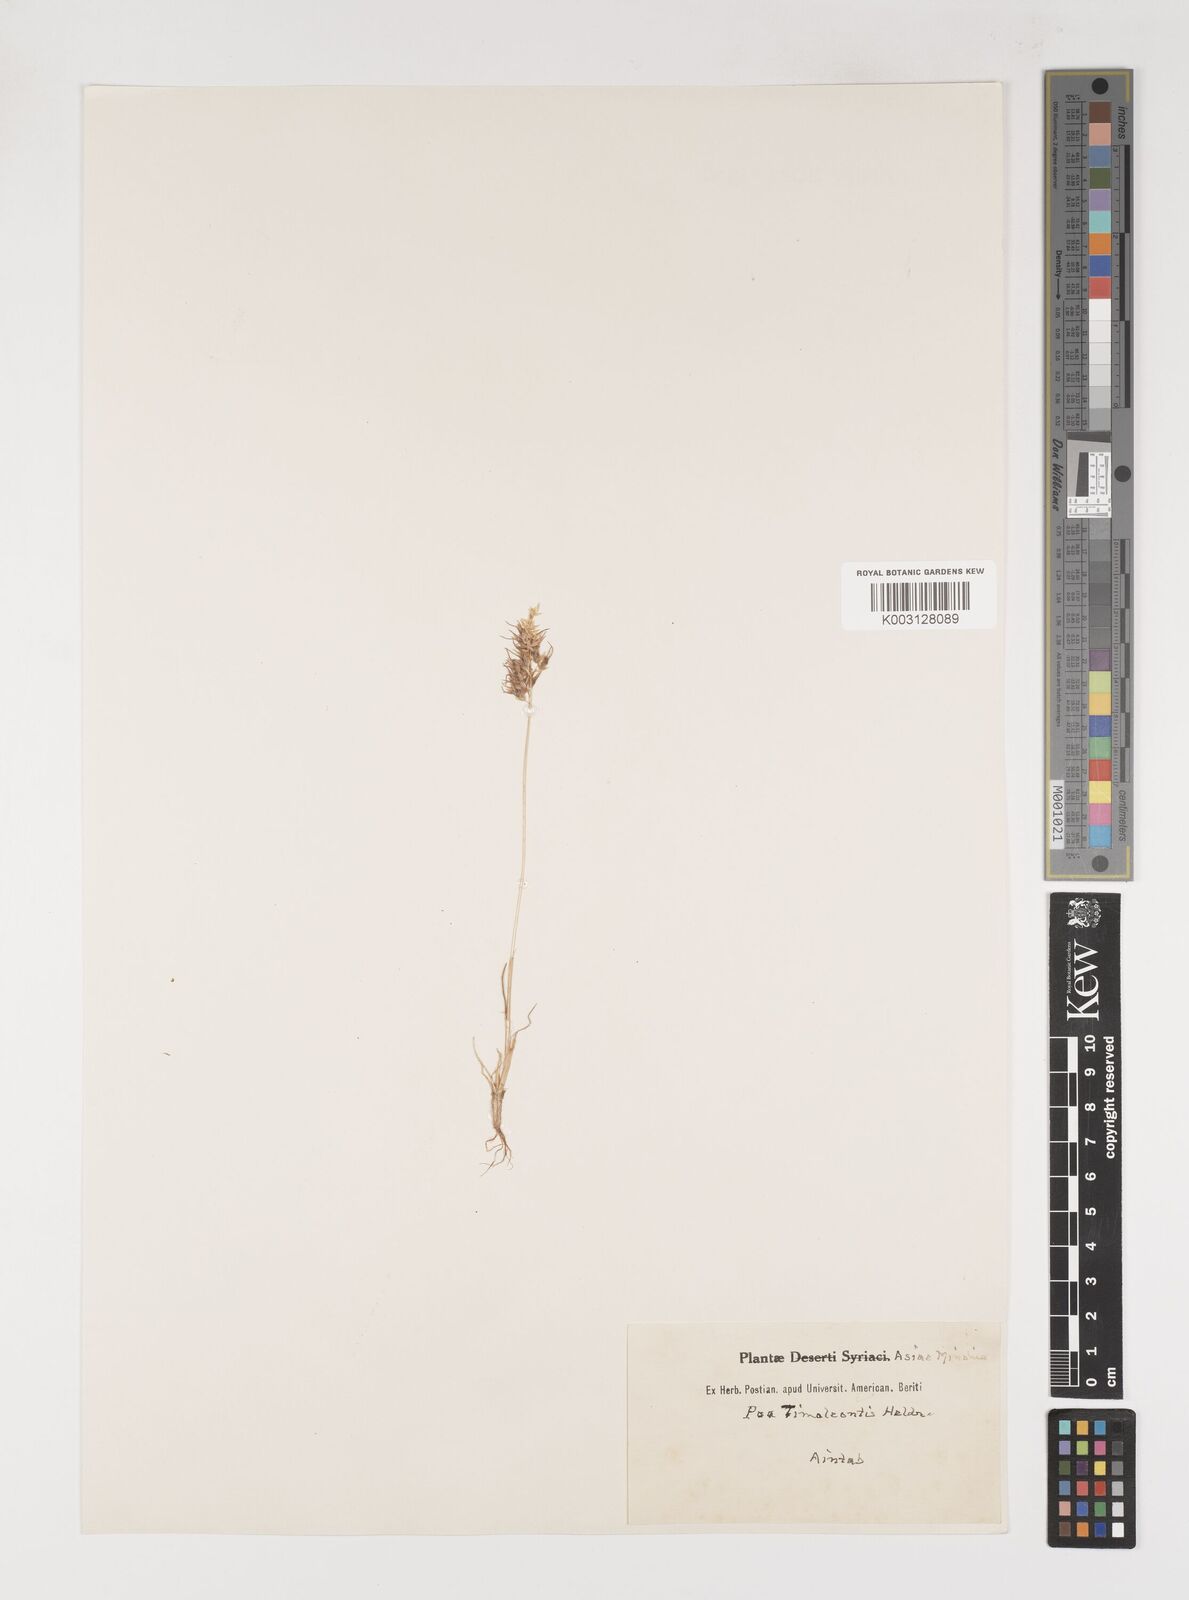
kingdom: Plantae
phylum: Tracheophyta
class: Liliopsida
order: Poales
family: Poaceae
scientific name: Poaceae
